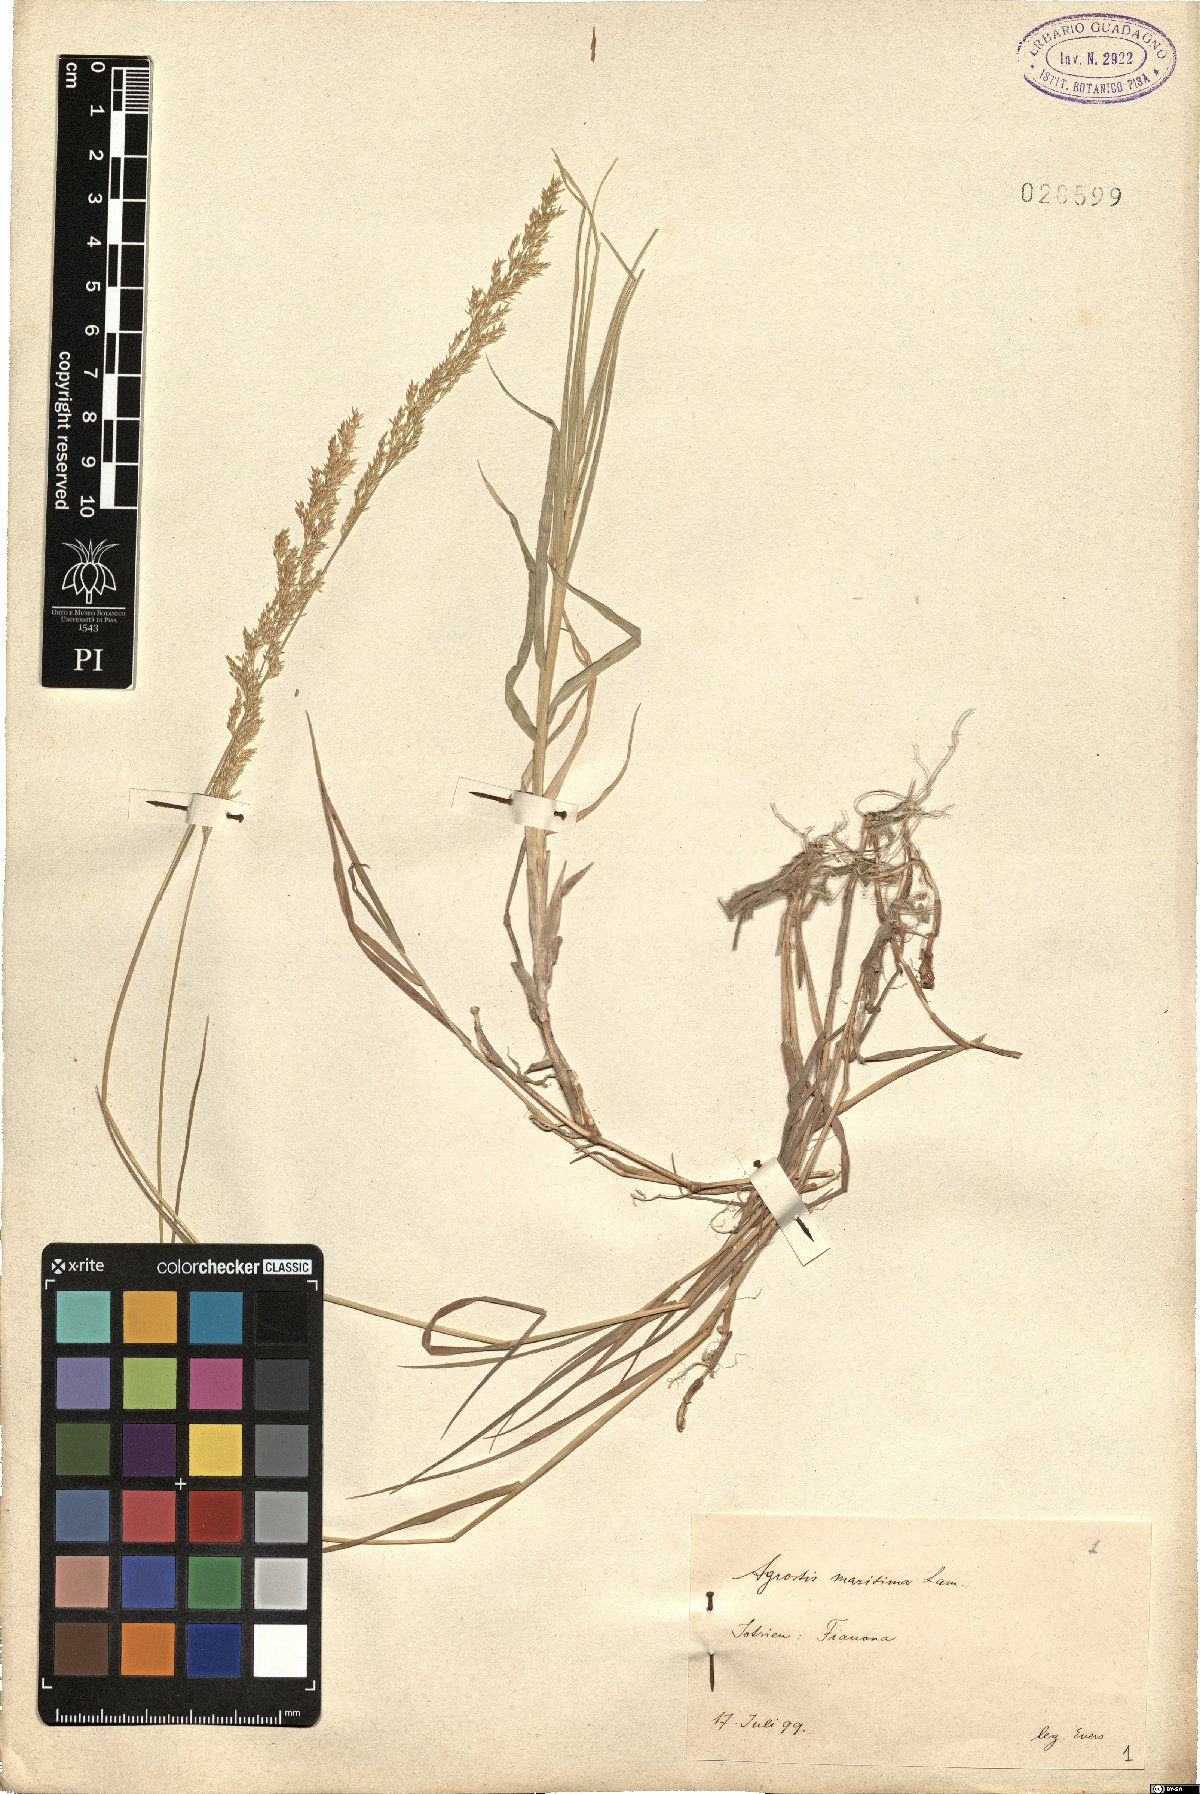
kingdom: Plantae
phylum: Tracheophyta
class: Liliopsida
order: Poales
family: Poaceae
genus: Agrostis
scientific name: Agrostis stolonifera
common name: Creeping bentgrass
